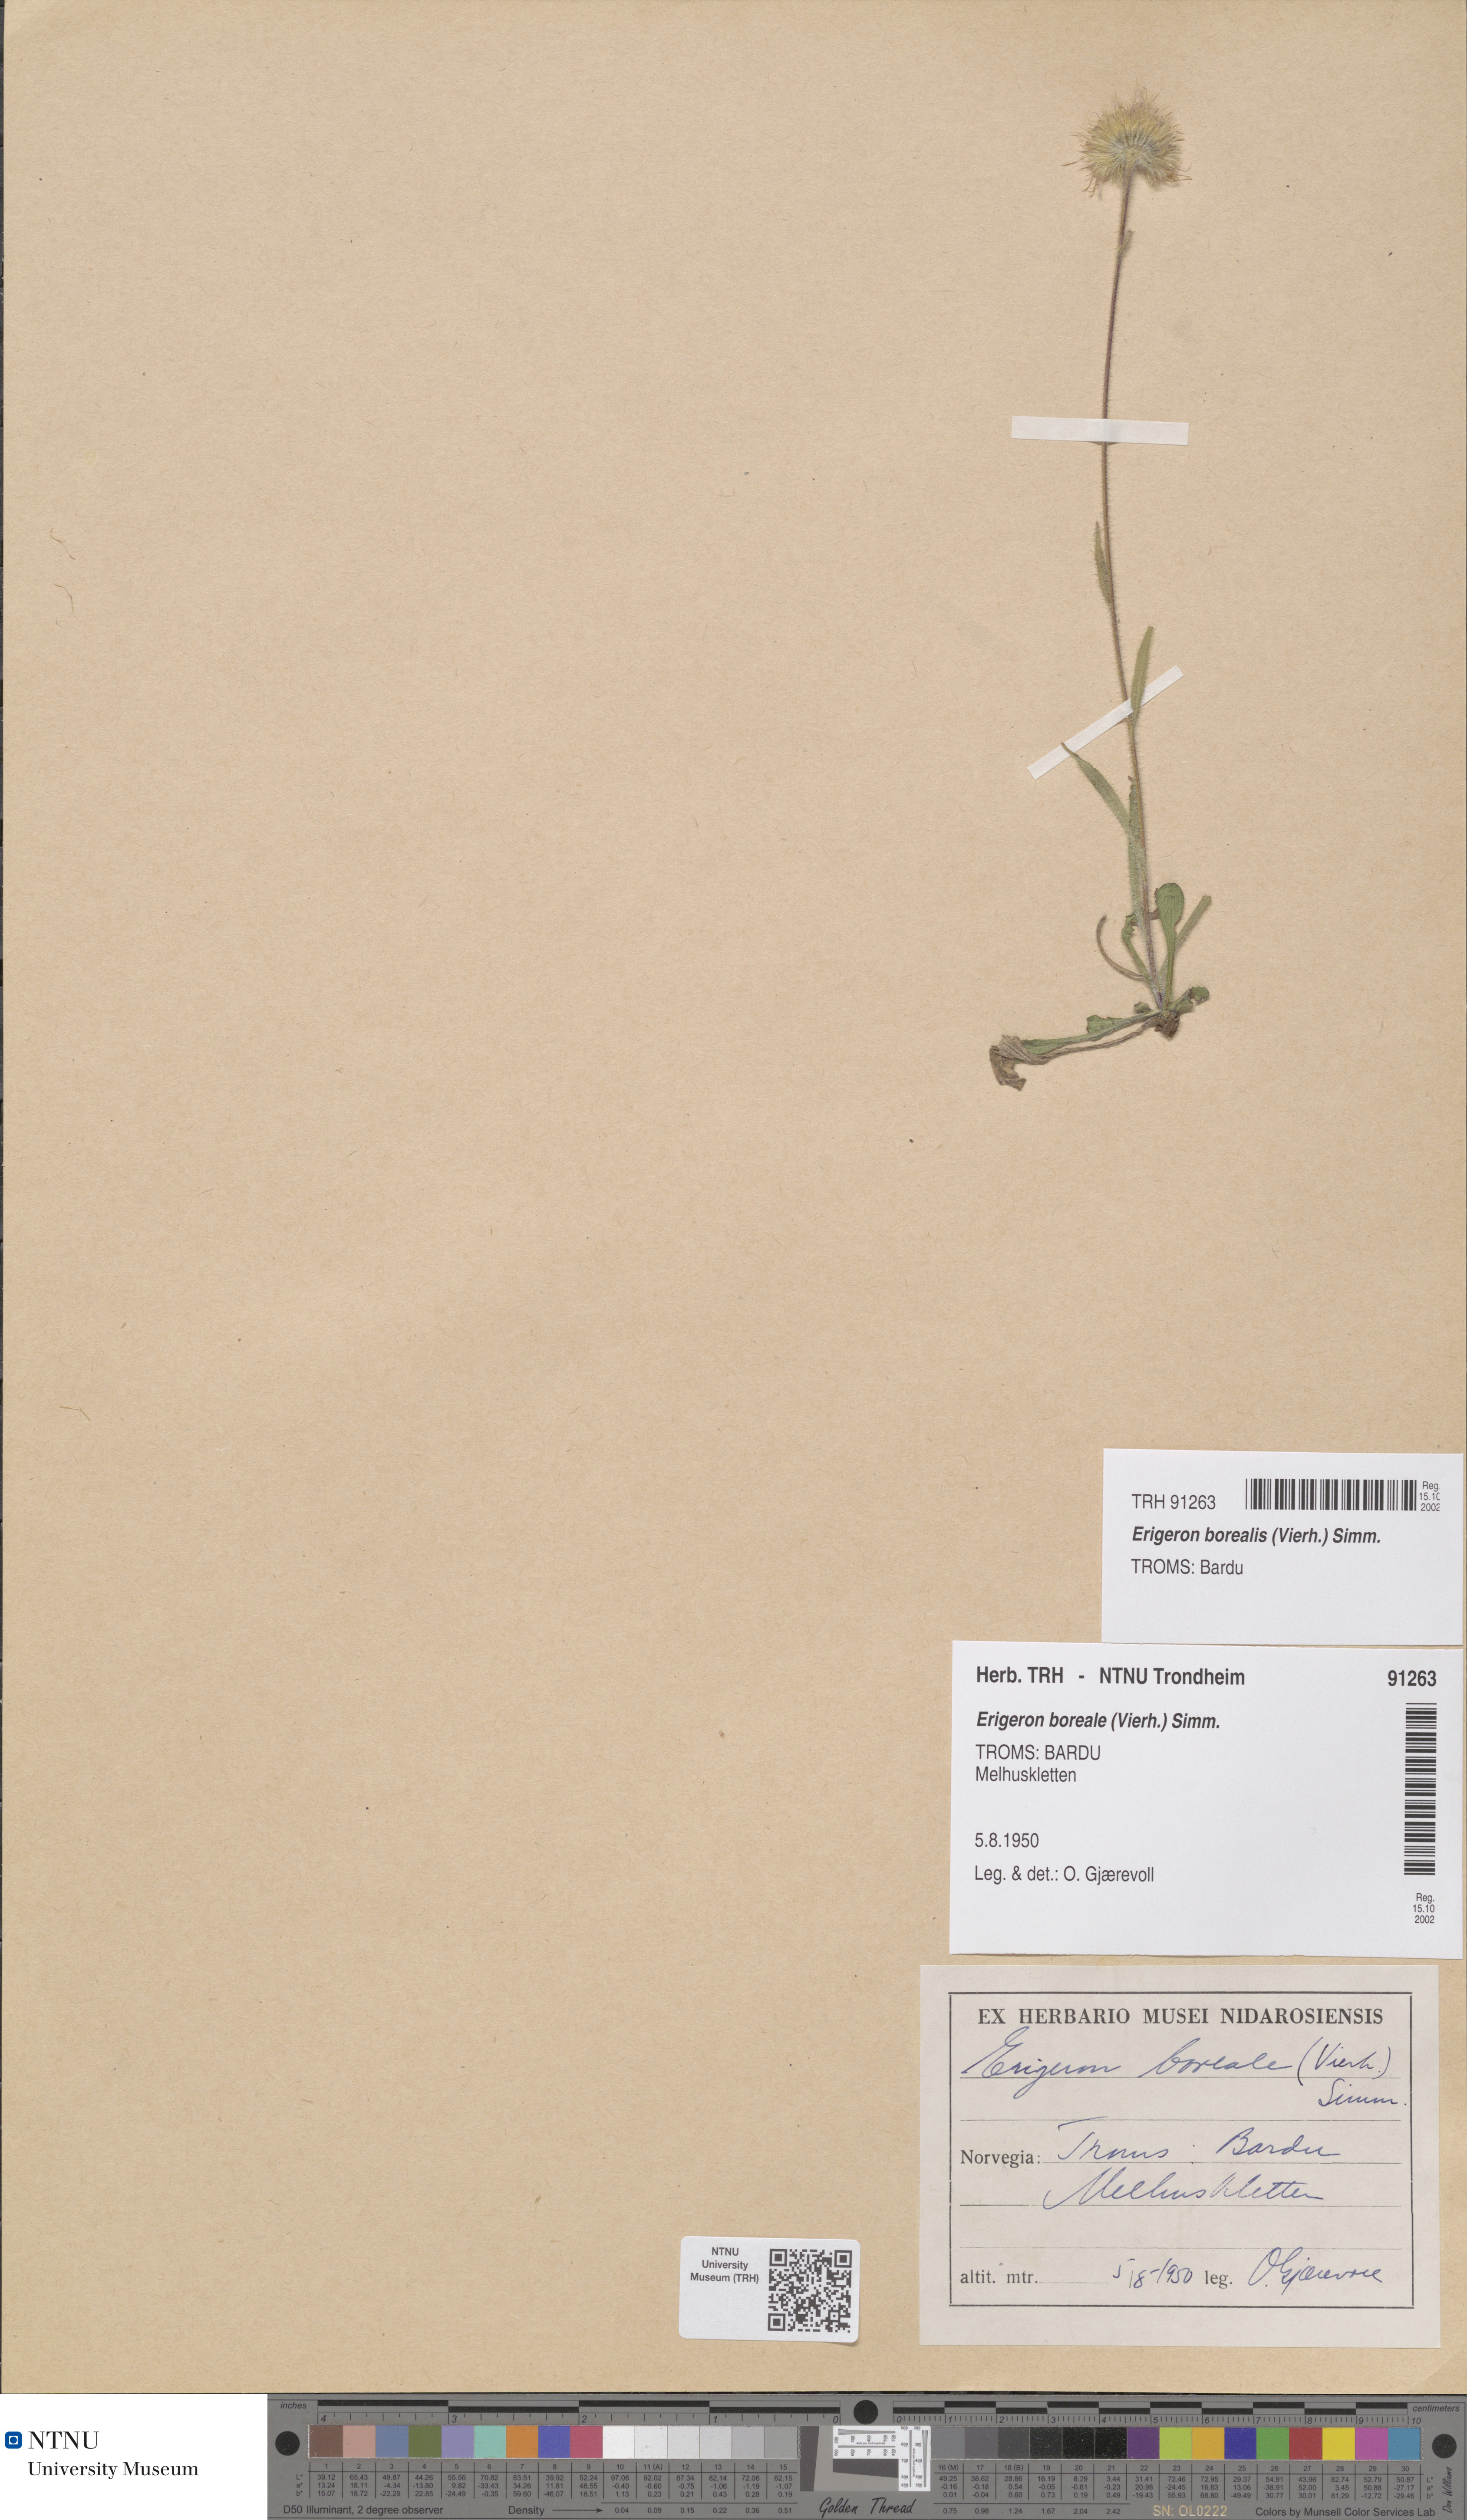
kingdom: Plantae
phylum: Tracheophyta
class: Magnoliopsida
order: Asterales
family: Asteraceae
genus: Erigeron
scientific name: Erigeron borealis
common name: Alpine fleabane
